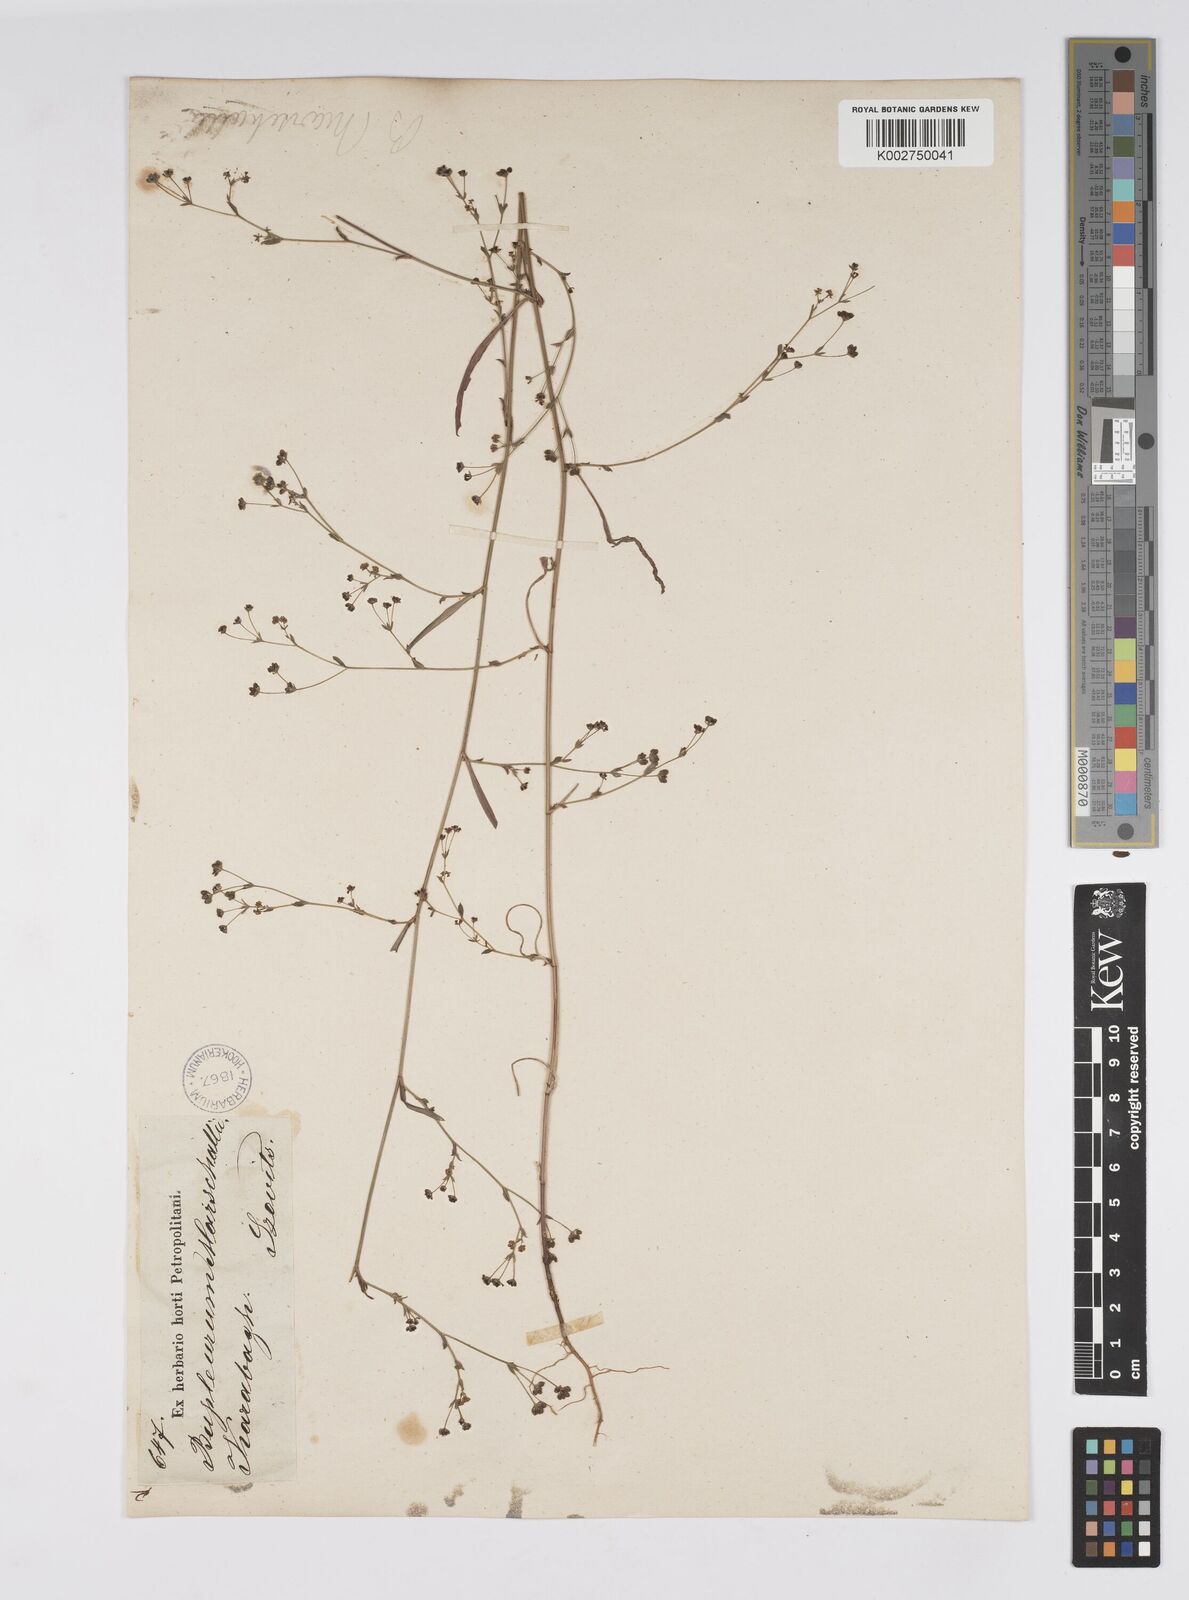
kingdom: Plantae
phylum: Tracheophyta
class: Magnoliopsida
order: Apiales
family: Apiaceae
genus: Bupleurum
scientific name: Bupleurum marschallianum
